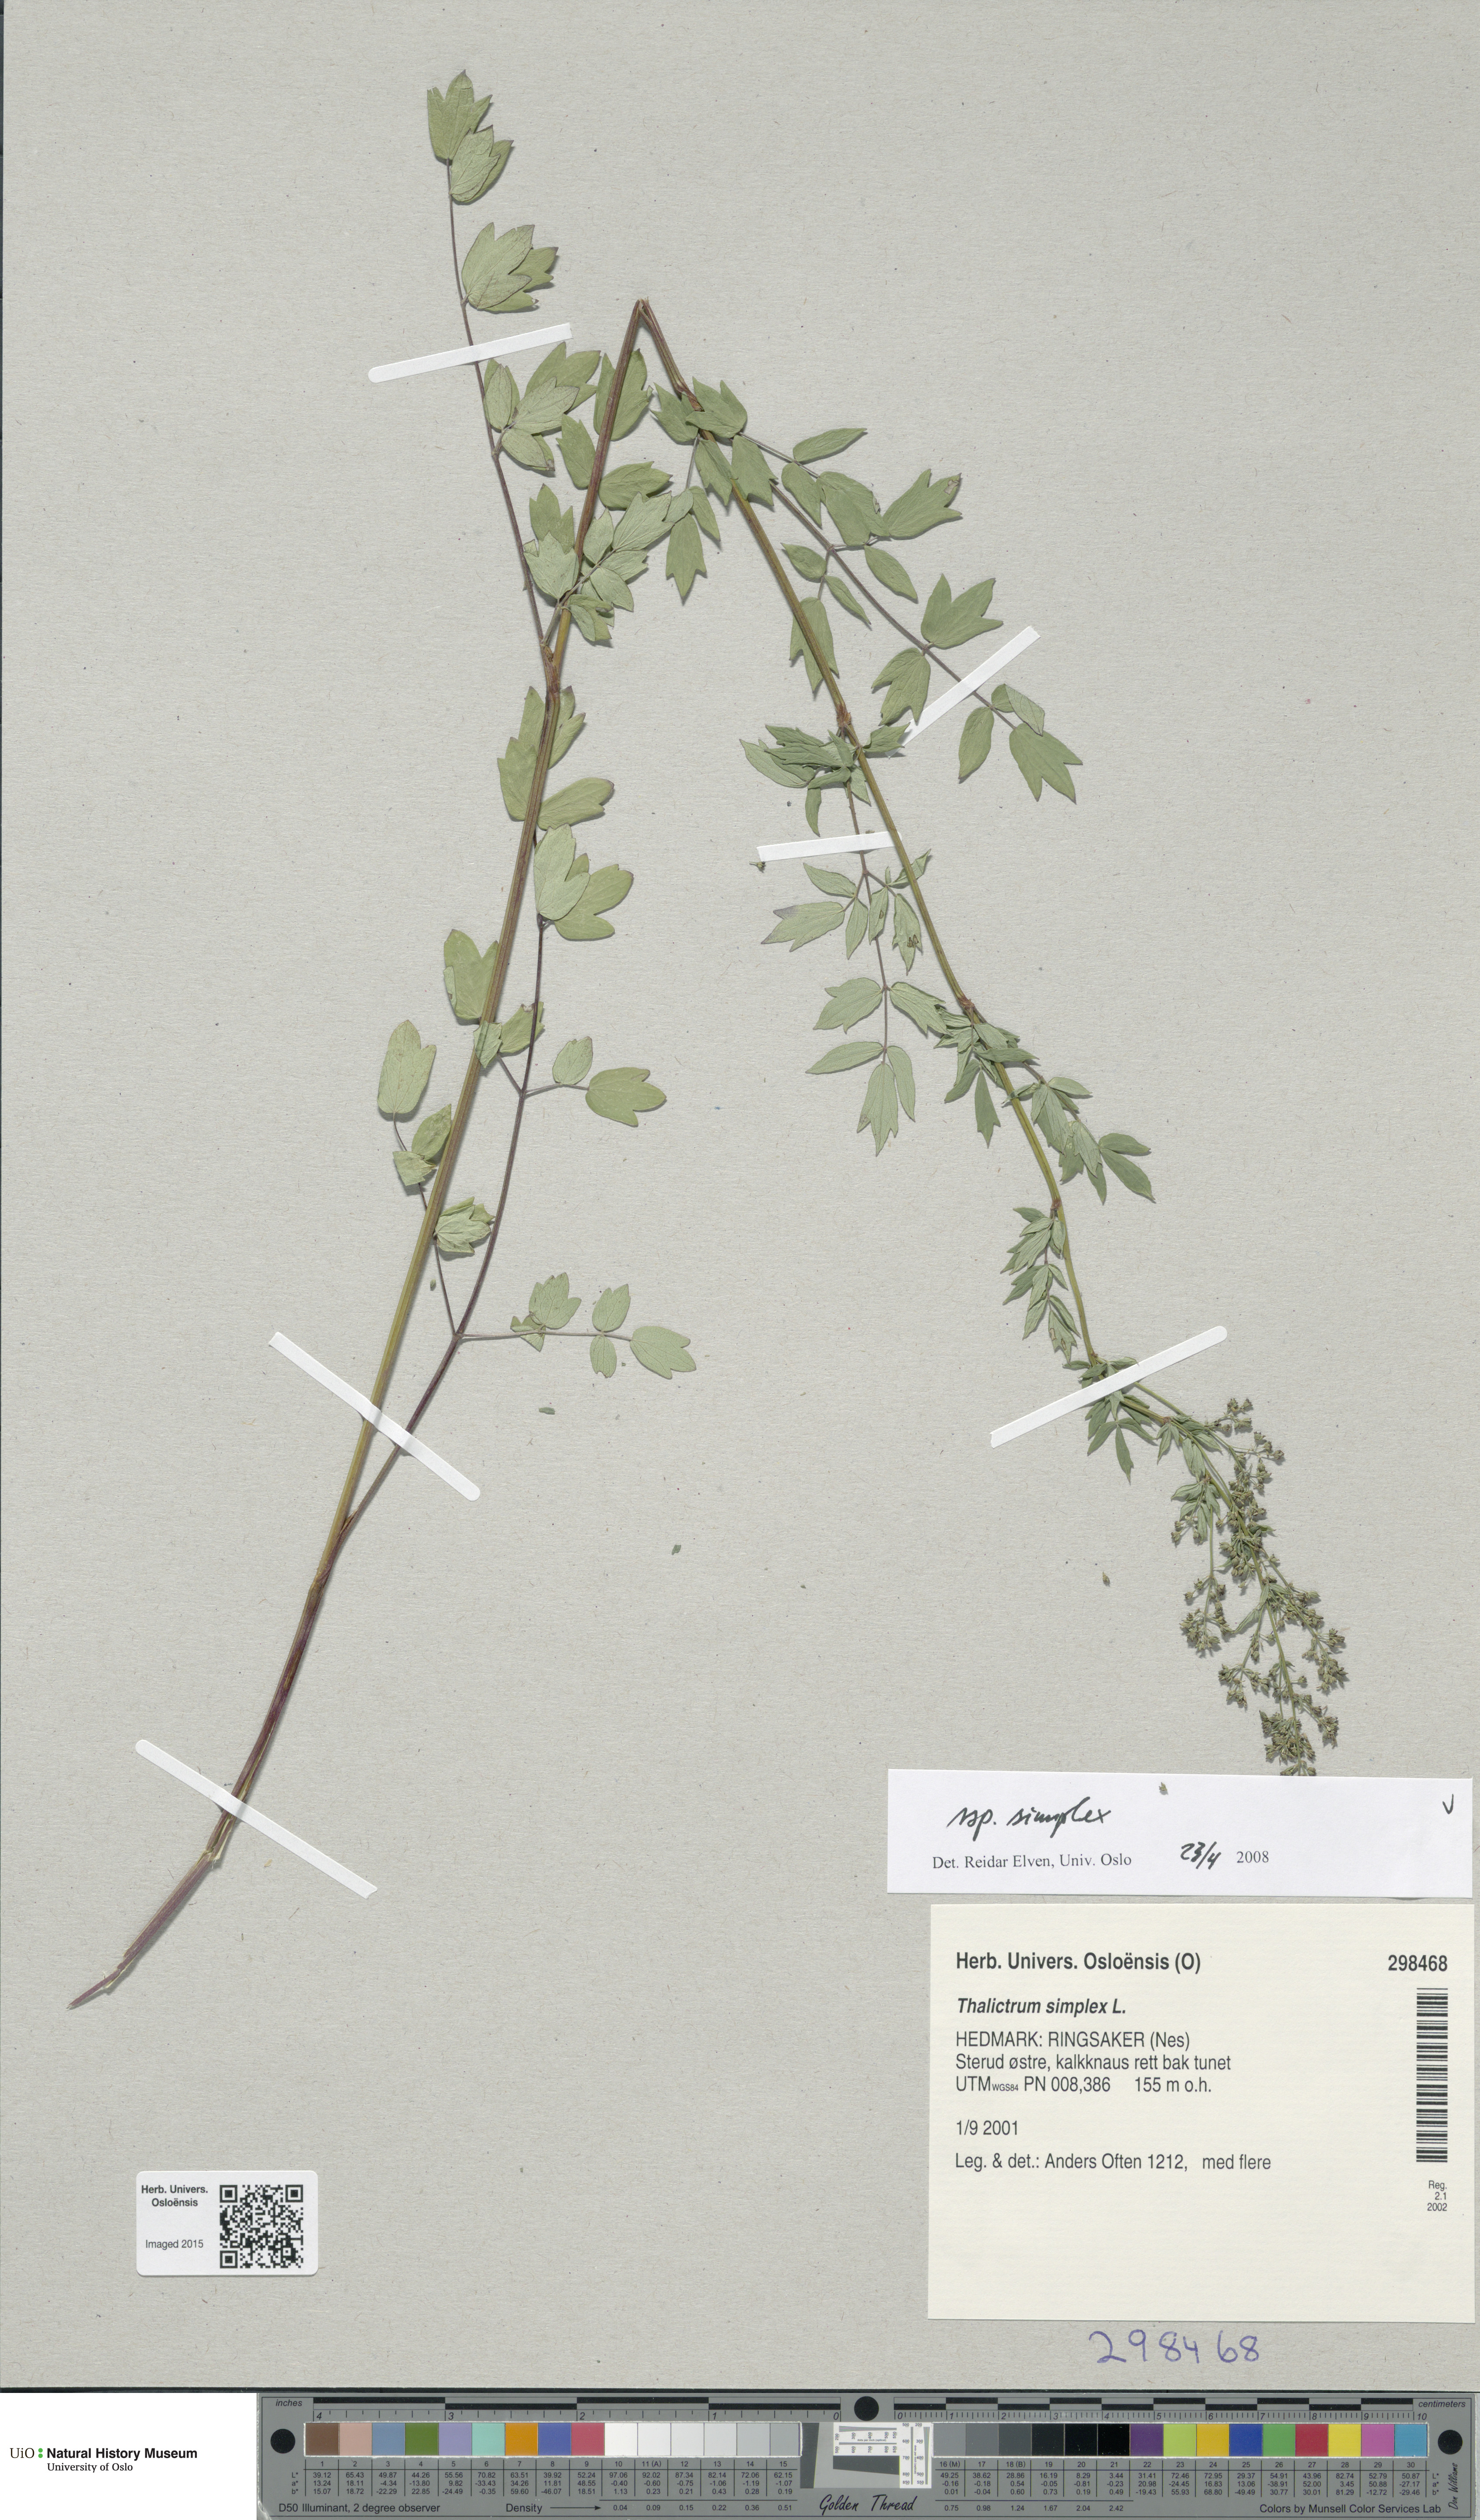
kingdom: Plantae
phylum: Tracheophyta
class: Magnoliopsida
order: Ranunculales
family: Ranunculaceae
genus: Thalictrum
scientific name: Thalictrum simplex
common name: Small meadow-rue
